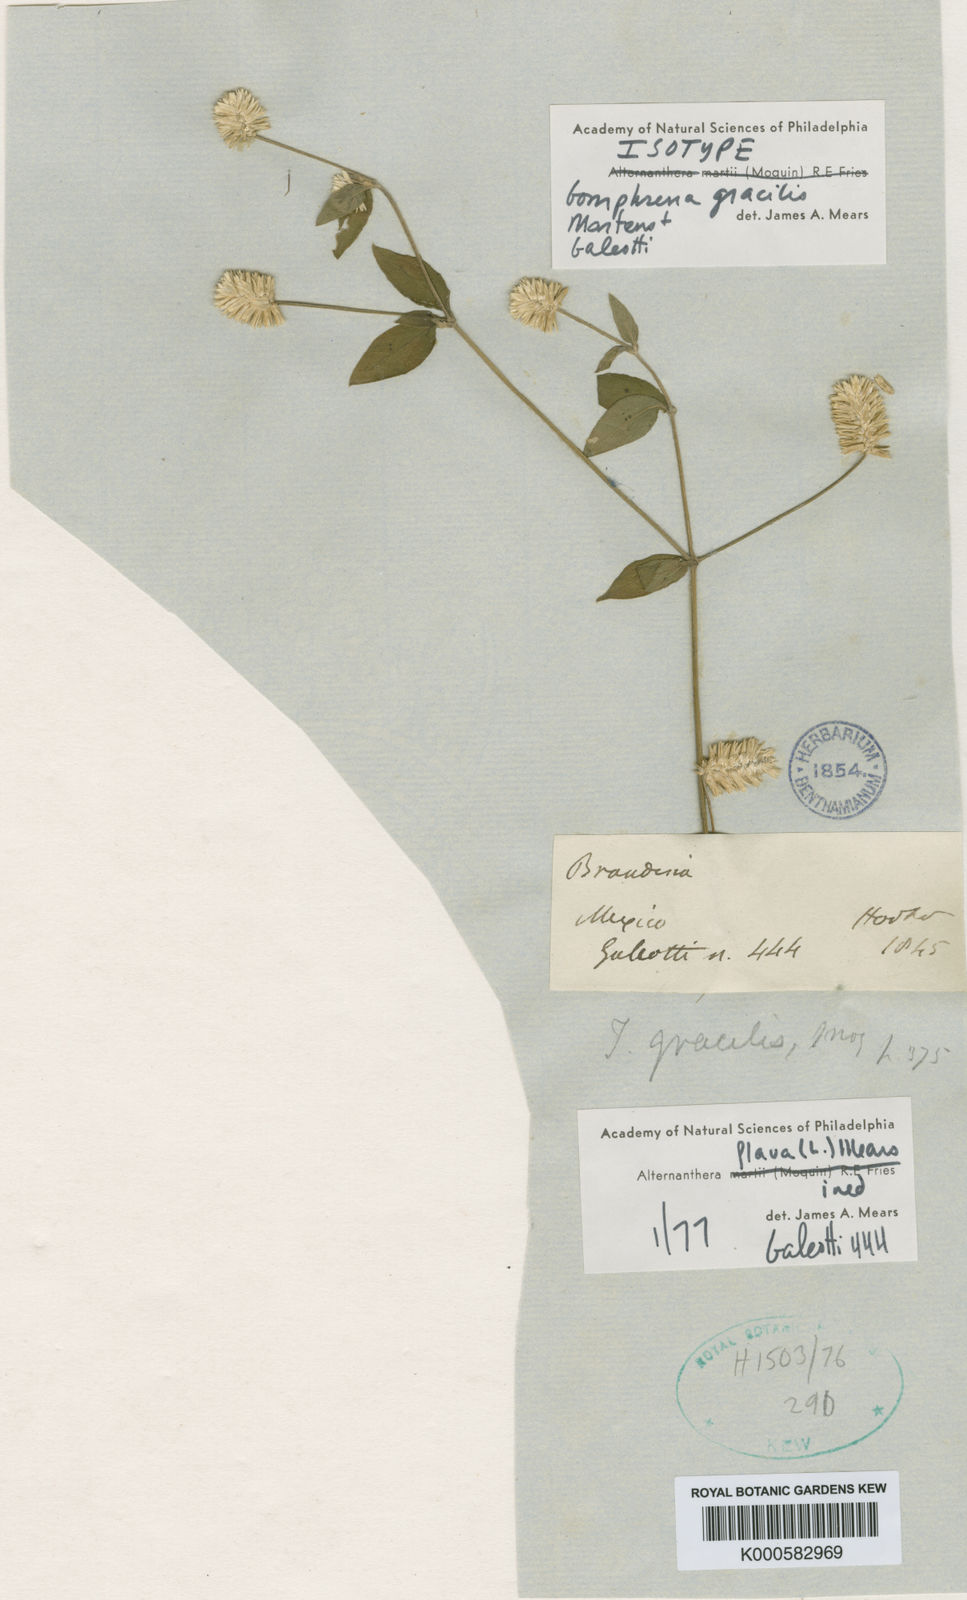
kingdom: Plantae
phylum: Tracheophyta
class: Magnoliopsida
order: Caryophyllales
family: Amaranthaceae
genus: Alternanthera
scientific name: Alternanthera flava
